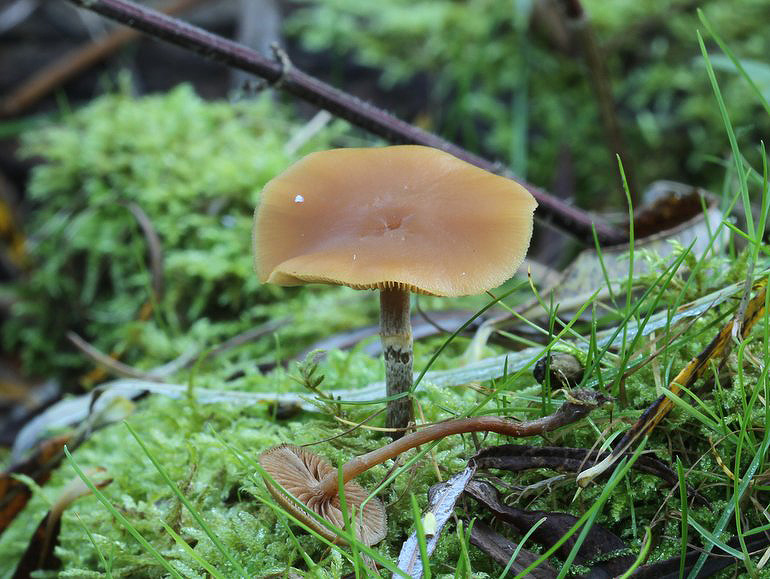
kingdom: Fungi
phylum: Basidiomycota
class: Agaricomycetes
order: Agaricales
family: Hymenogastraceae
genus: Galerina
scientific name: Galerina marginata
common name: randbæltet hjelmhat
